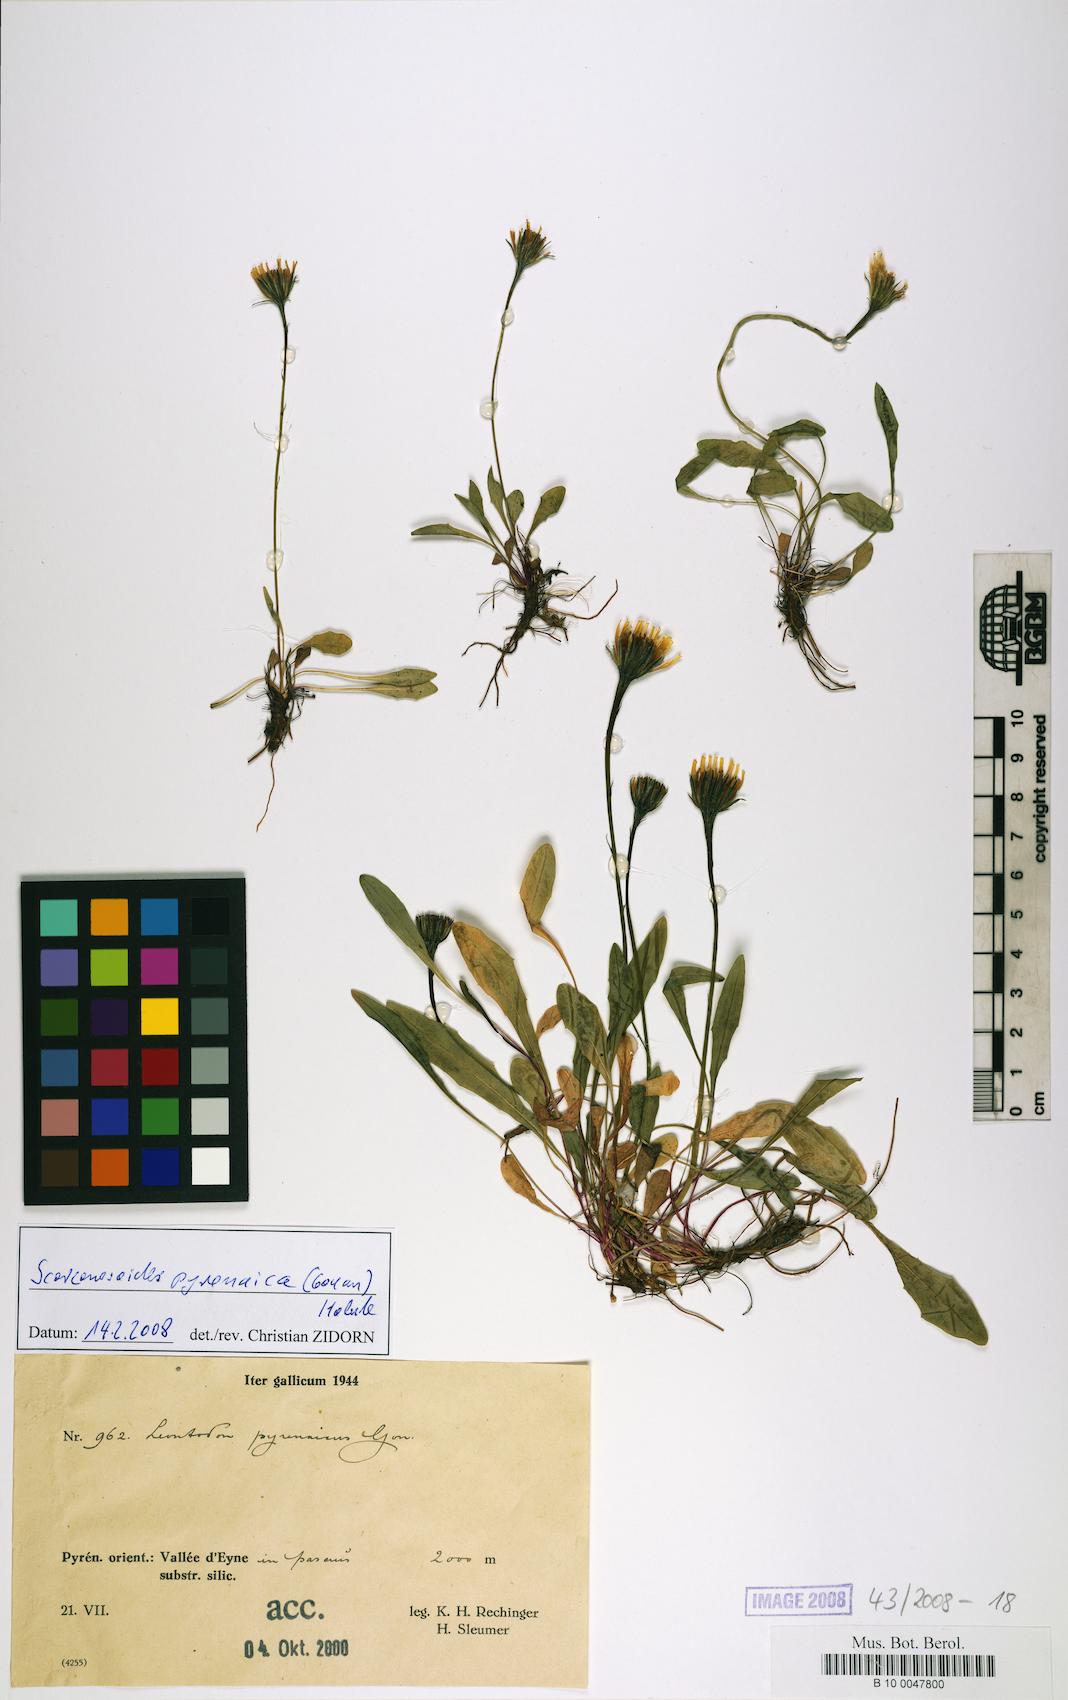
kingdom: Plantae
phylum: Tracheophyta
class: Magnoliopsida
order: Asterales
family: Asteraceae
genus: Scorzoneroides
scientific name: Scorzoneroides pyrenaica
